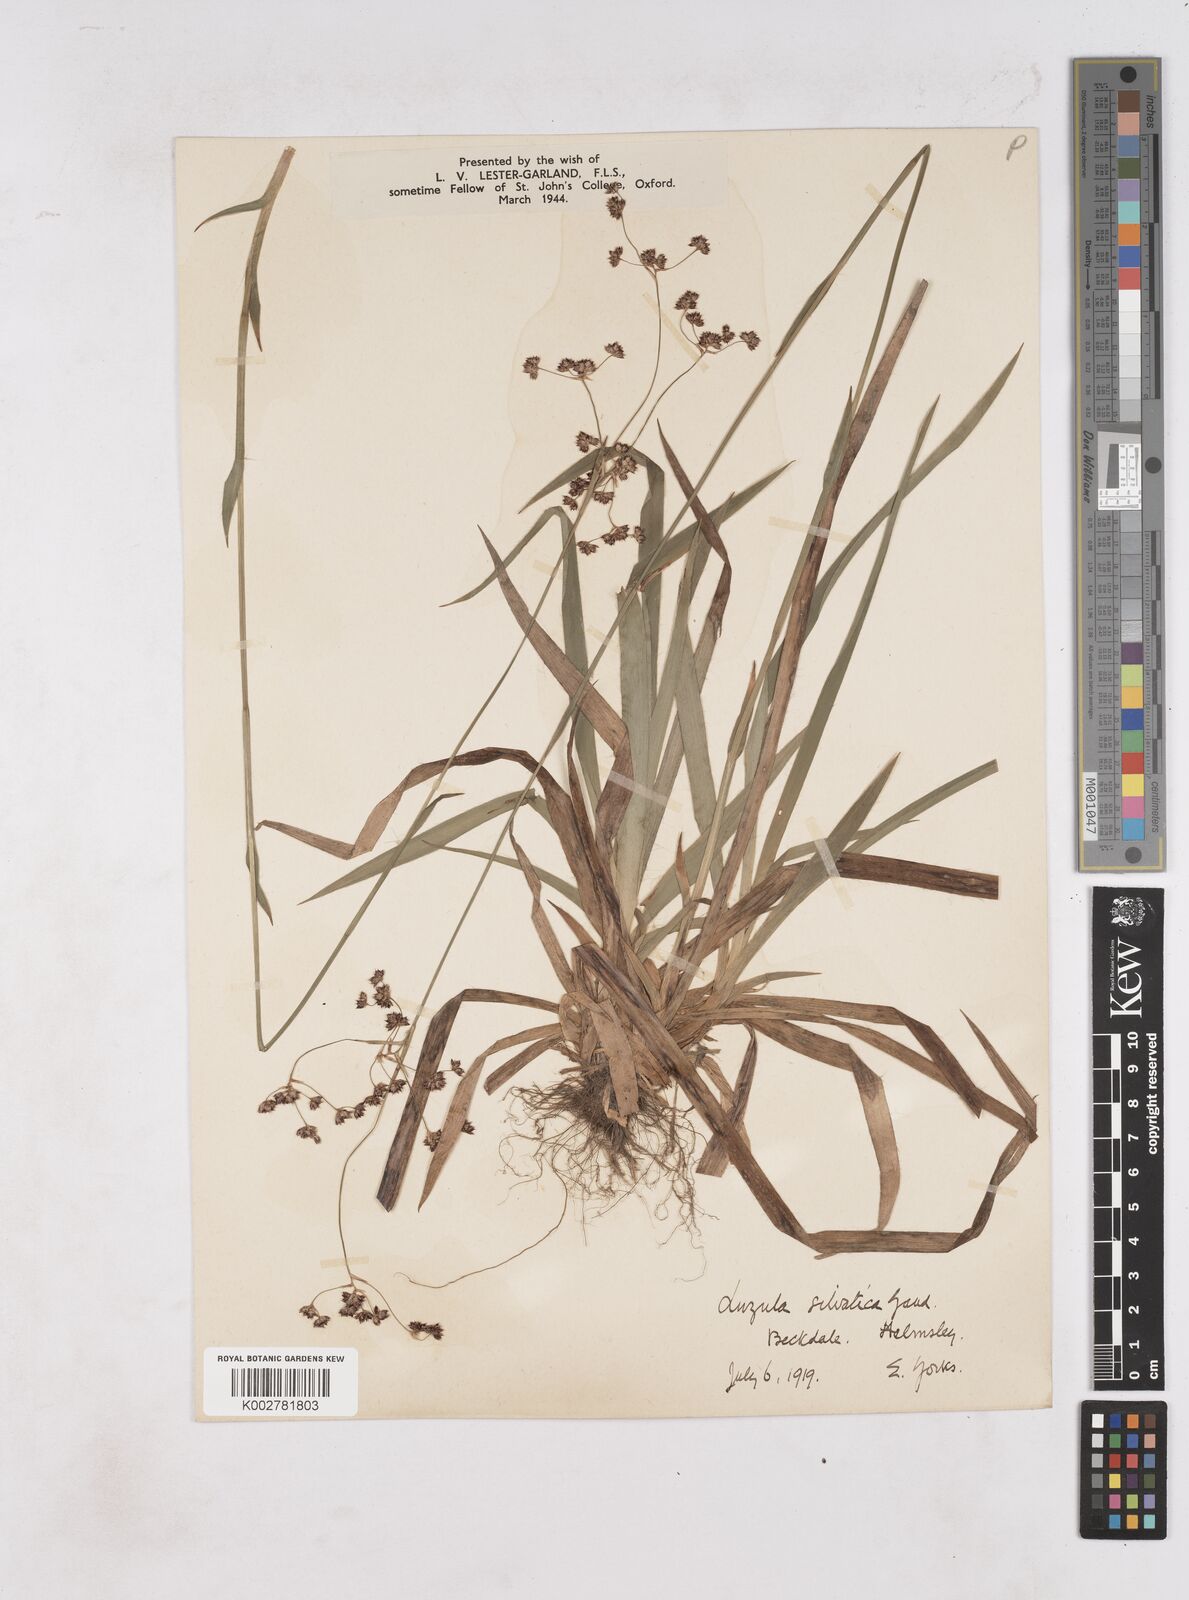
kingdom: Plantae
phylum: Tracheophyta
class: Liliopsida
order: Poales
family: Juncaceae
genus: Luzula
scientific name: Luzula sylvatica
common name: Great wood-rush
